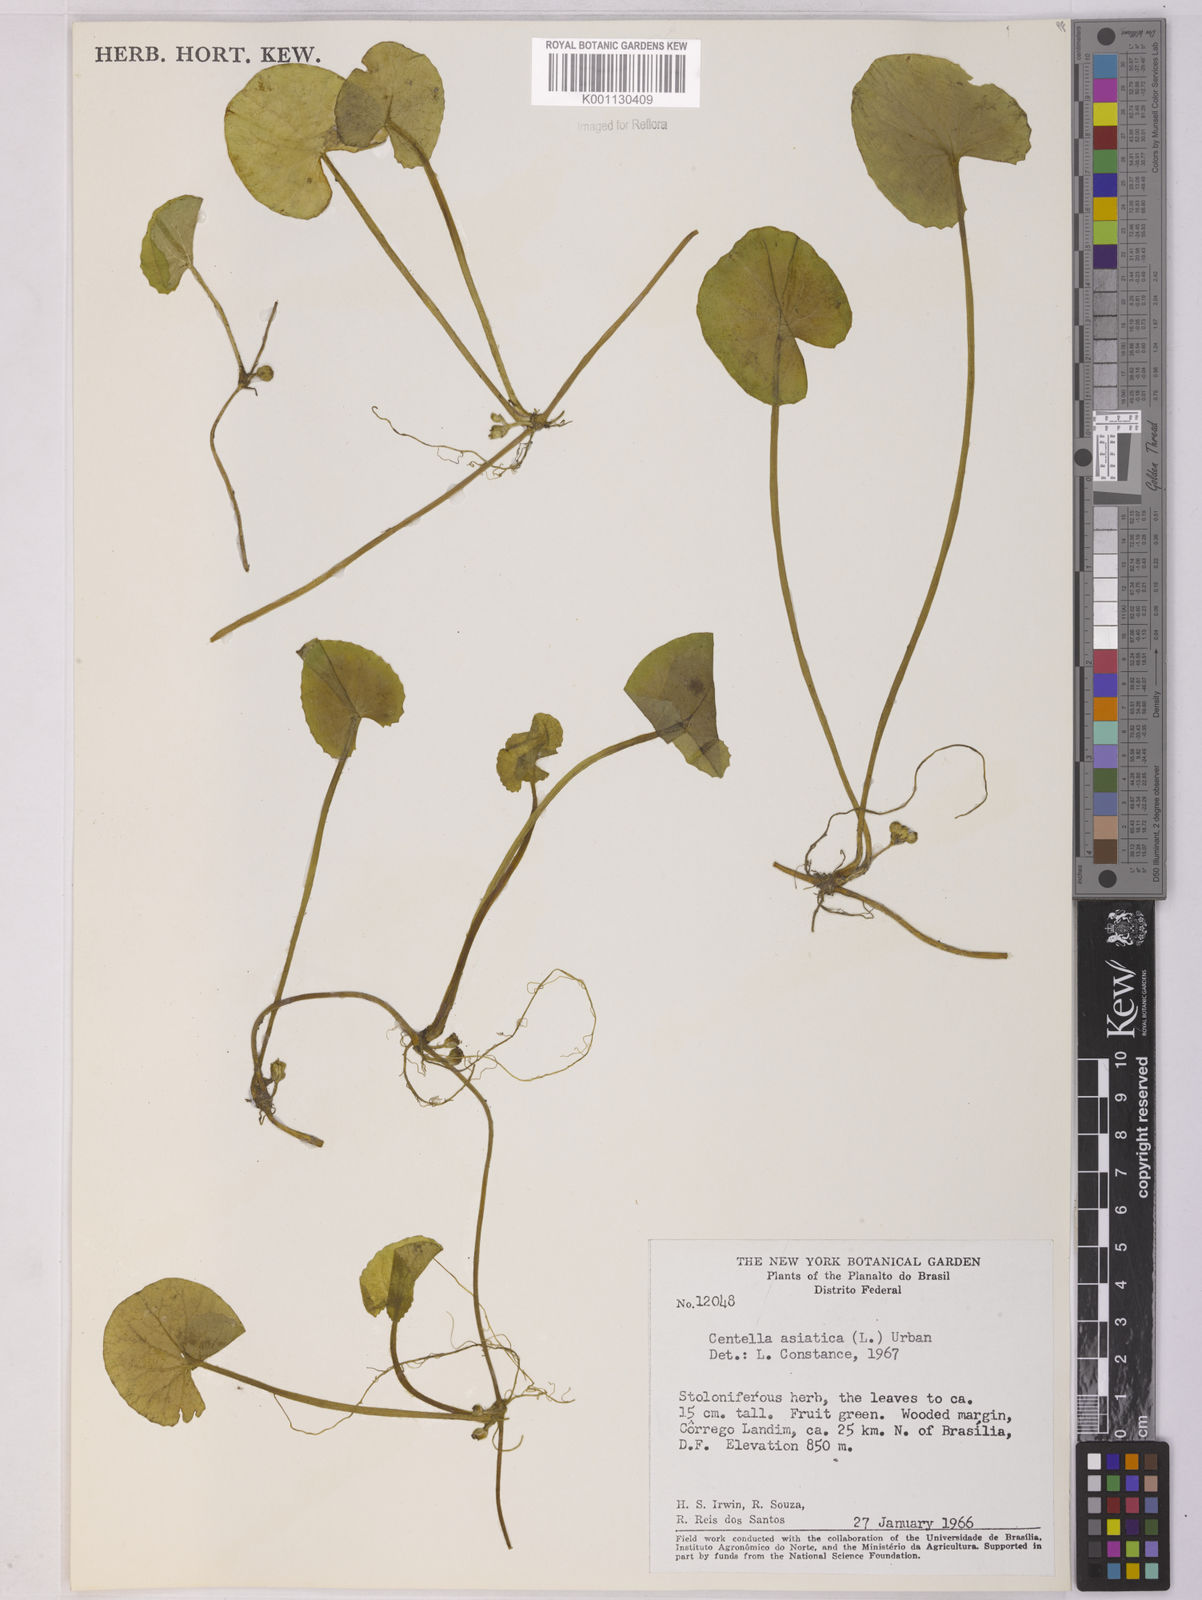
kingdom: Plantae
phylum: Tracheophyta
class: Magnoliopsida
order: Apiales
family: Apiaceae
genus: Centella
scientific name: Centella asiatica
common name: Spadeleaf
